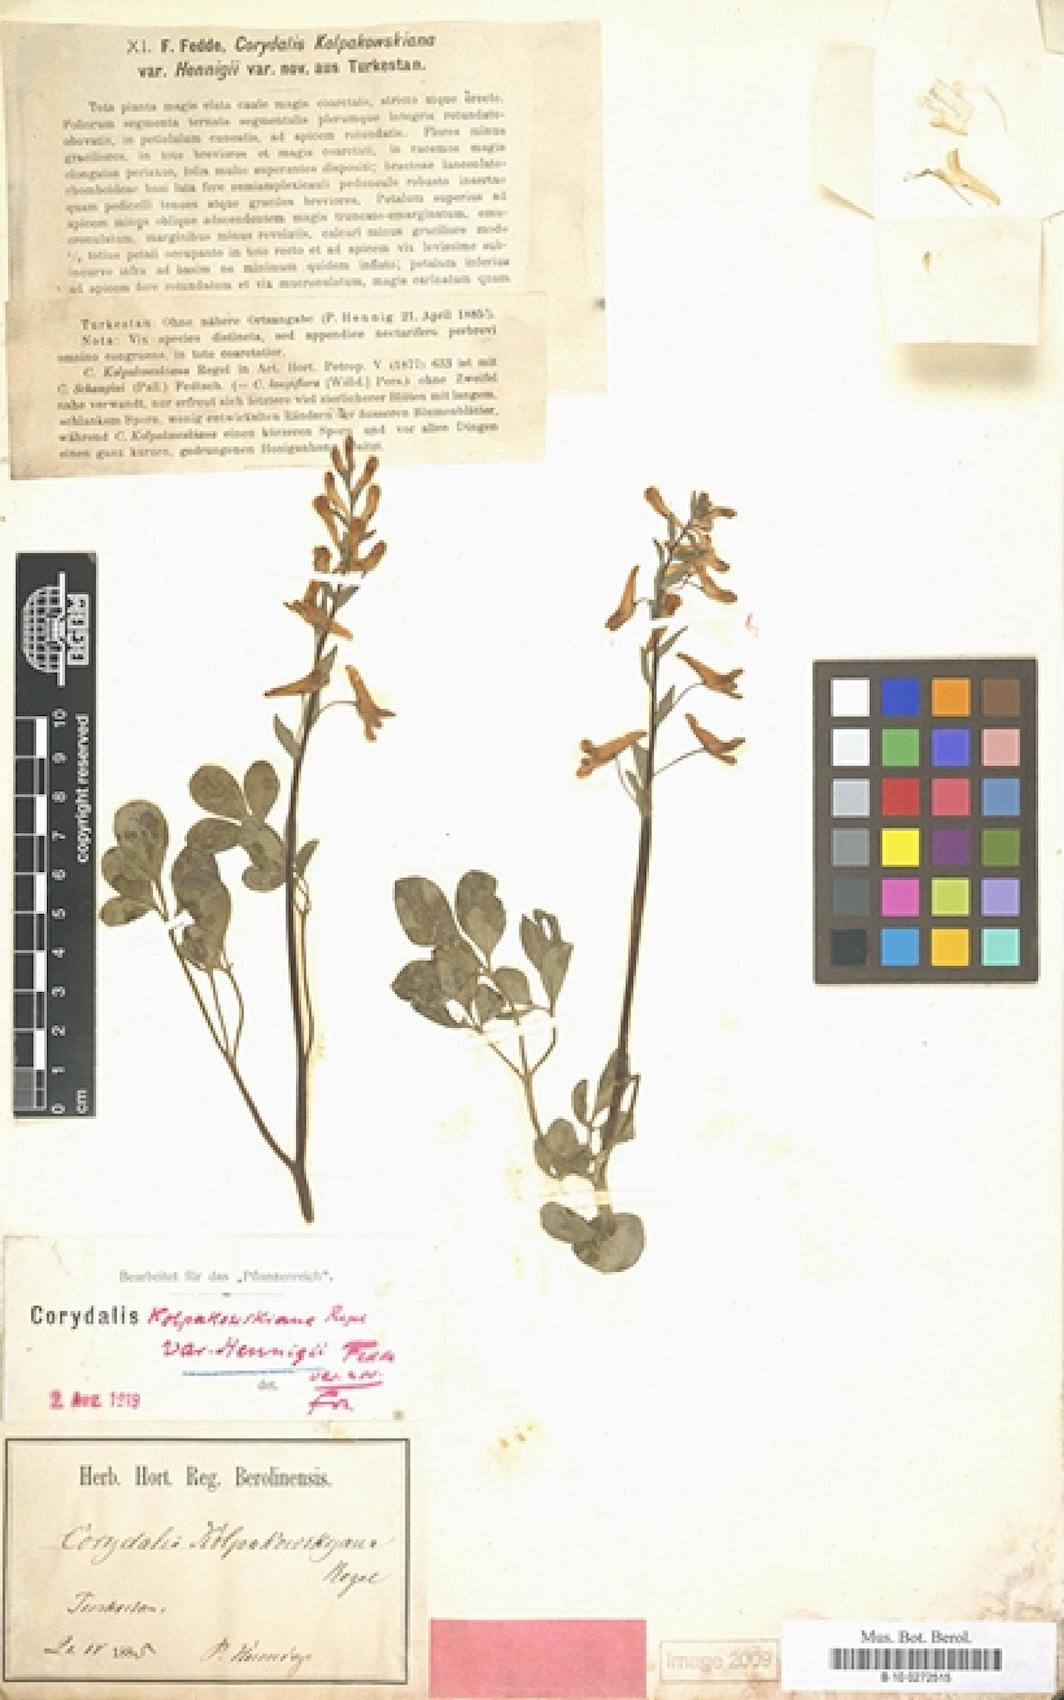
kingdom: Plantae
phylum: Tracheophyta
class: Magnoliopsida
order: Ranunculales
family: Papaveraceae
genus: Corydalis
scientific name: Corydalis glaucescens
